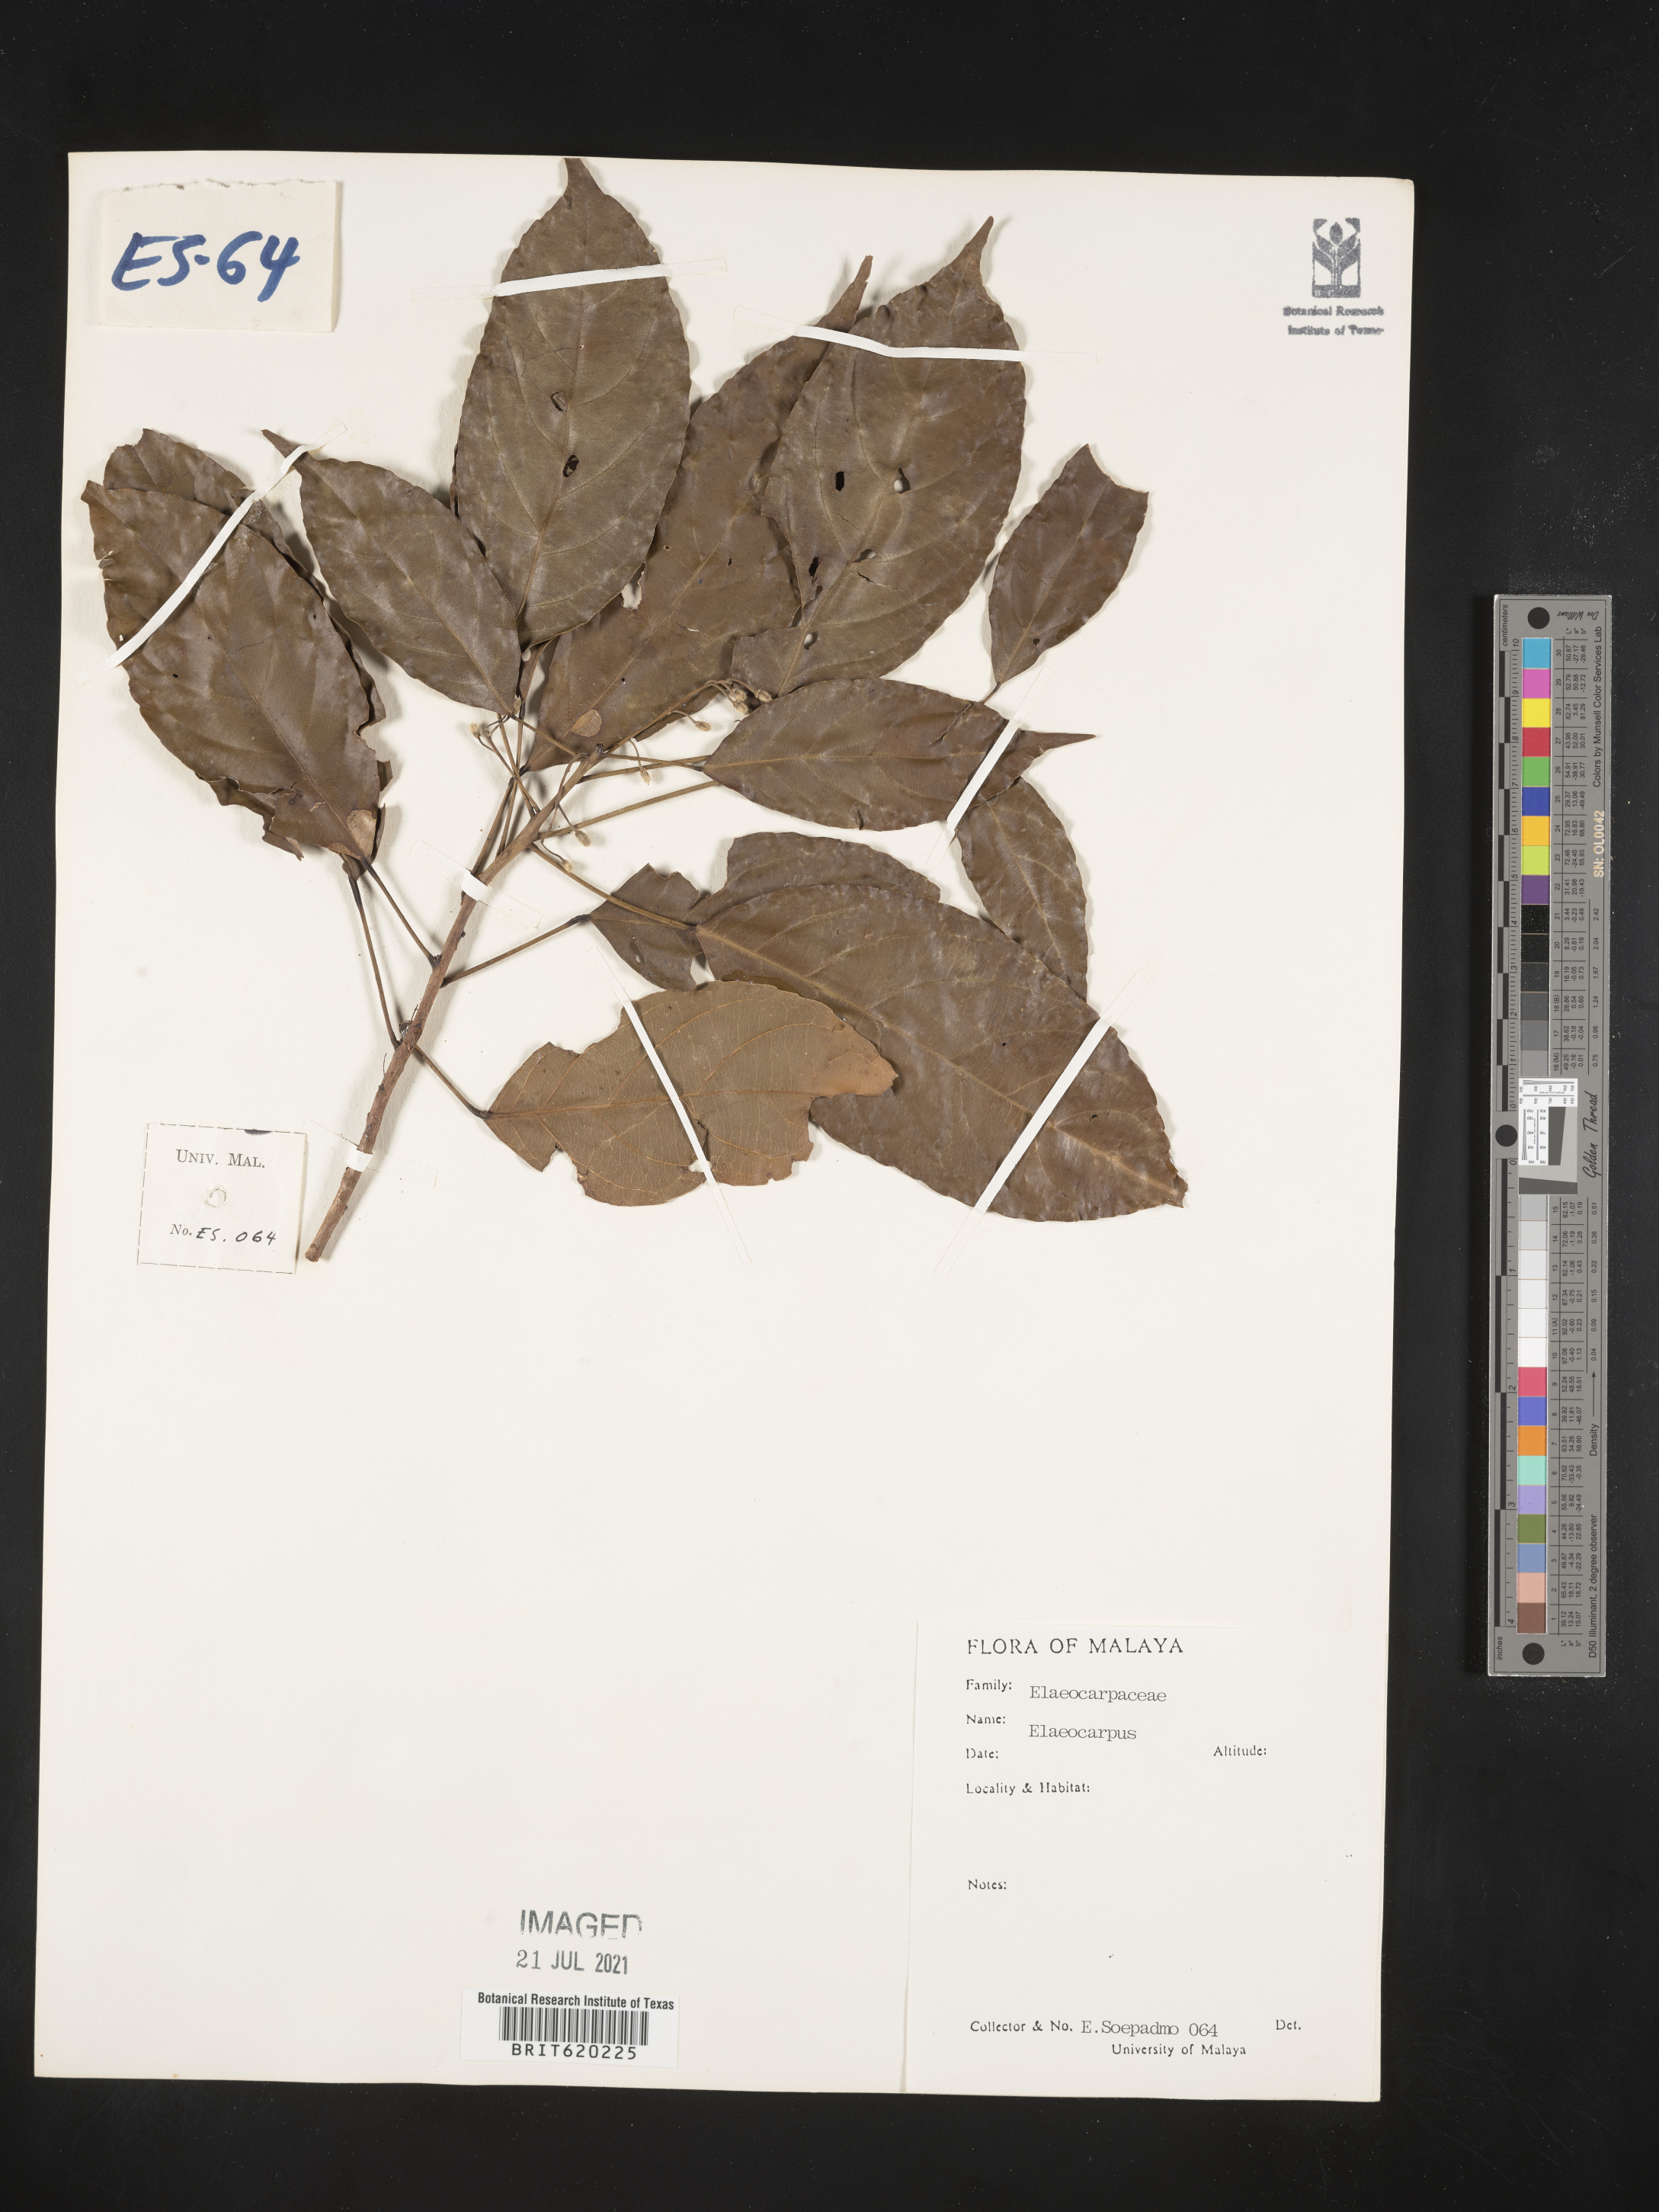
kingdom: Plantae
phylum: Tracheophyta
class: Magnoliopsida
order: Oxalidales
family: Elaeocarpaceae
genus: Elaeocarpus
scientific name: Elaeocarpus
